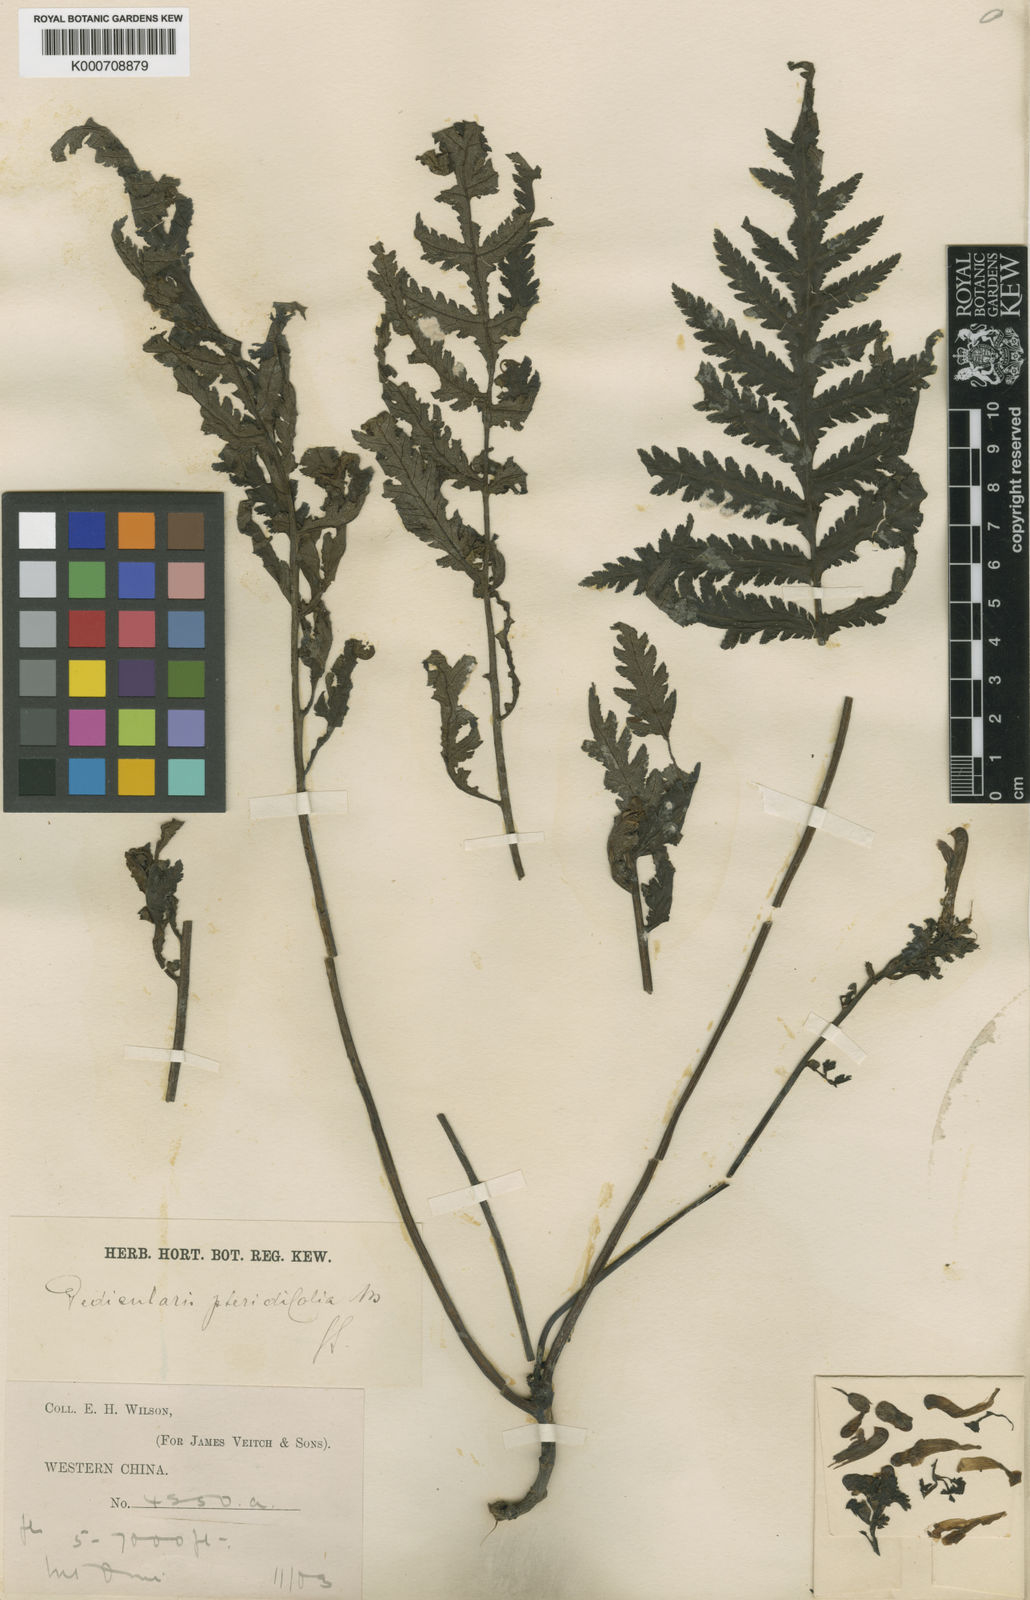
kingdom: Plantae
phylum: Tracheophyta
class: Magnoliopsida
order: Lamiales
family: Orobanchaceae
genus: Pedicularis
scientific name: Pedicularis pteridifolia
